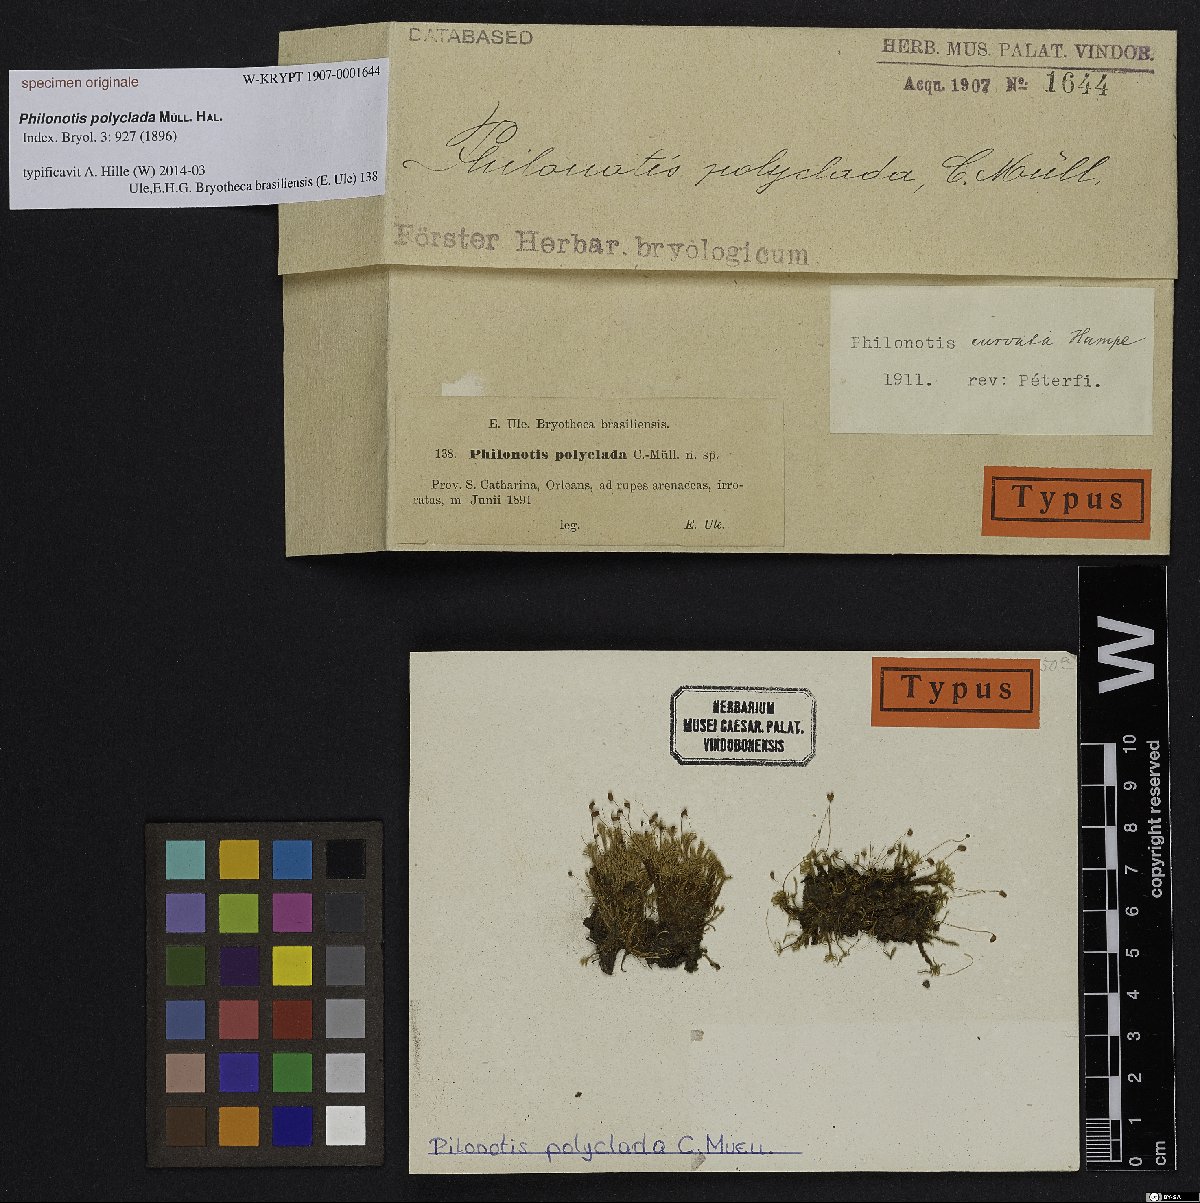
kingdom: Plantae
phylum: Bryophyta
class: Bryopsida
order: Bartramiales
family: Bartramiaceae
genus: Philonotis
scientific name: Philonotis calcarea
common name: Thick-nerved apple-moss
